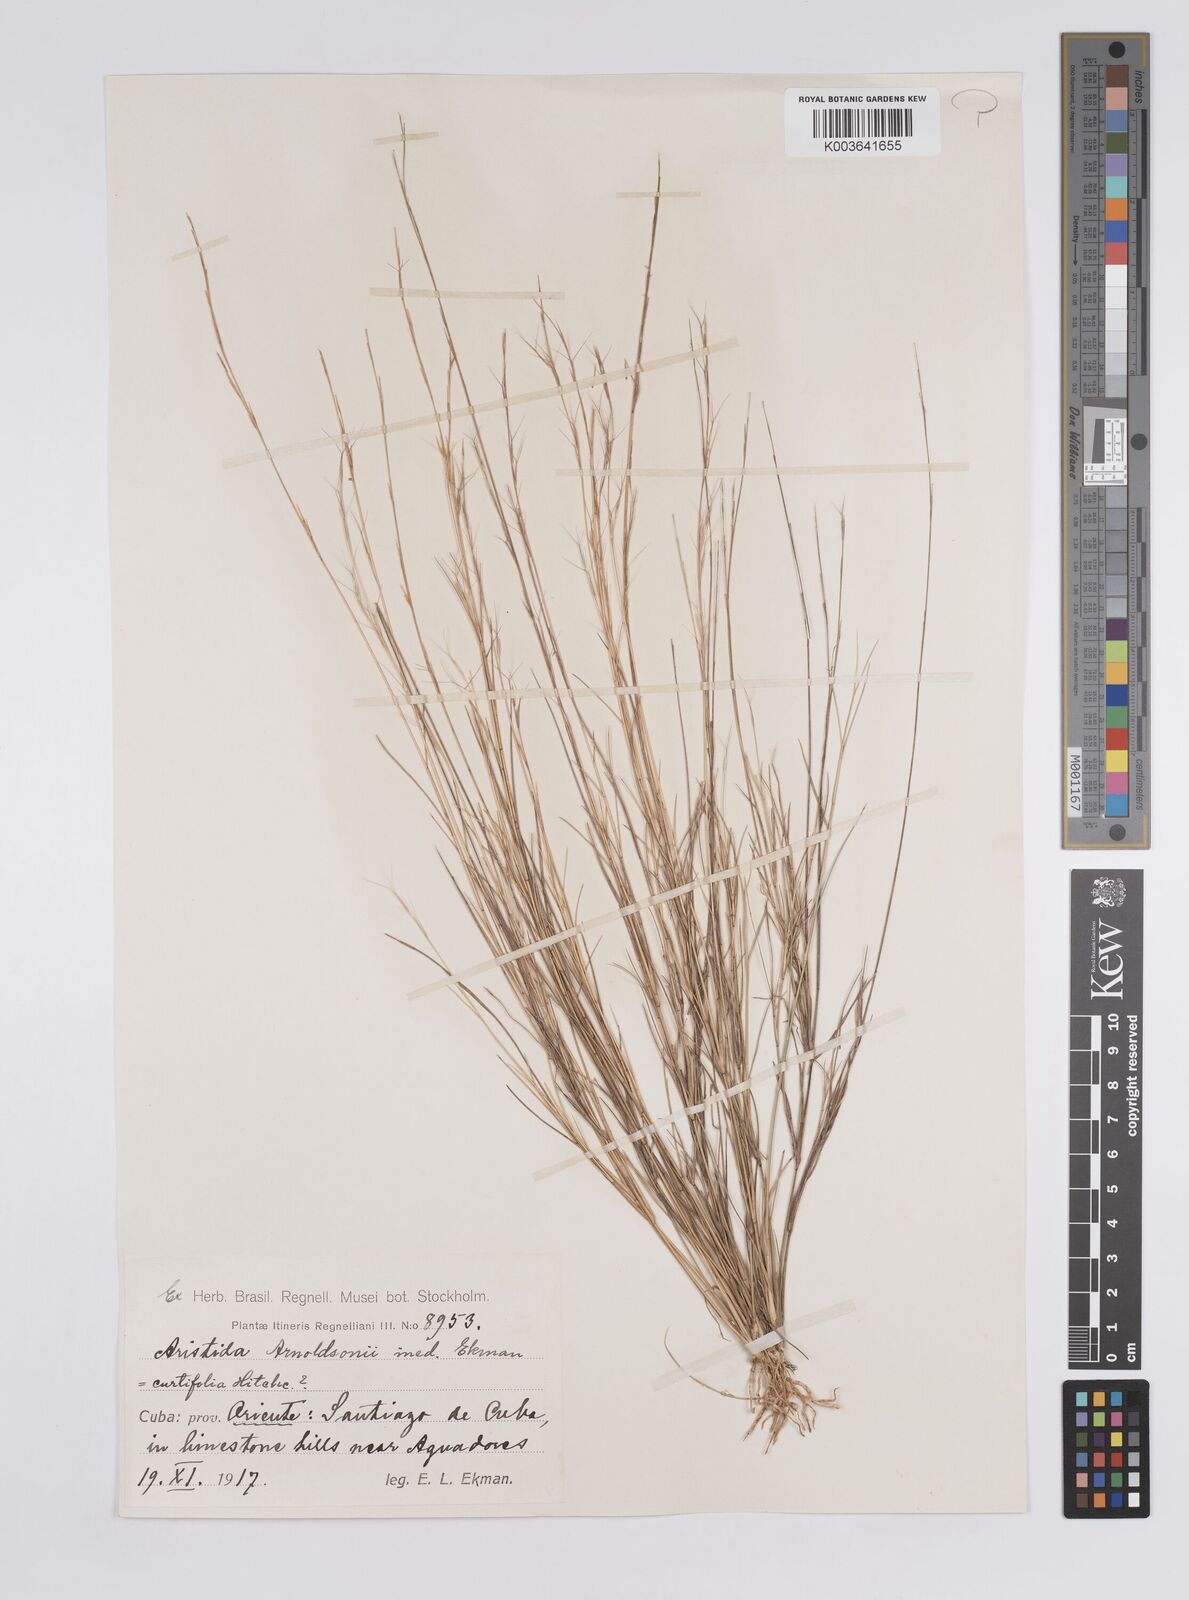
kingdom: Plantae
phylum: Tracheophyta
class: Liliopsida
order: Poales
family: Poaceae
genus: Aristida
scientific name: Aristida curtifolia
